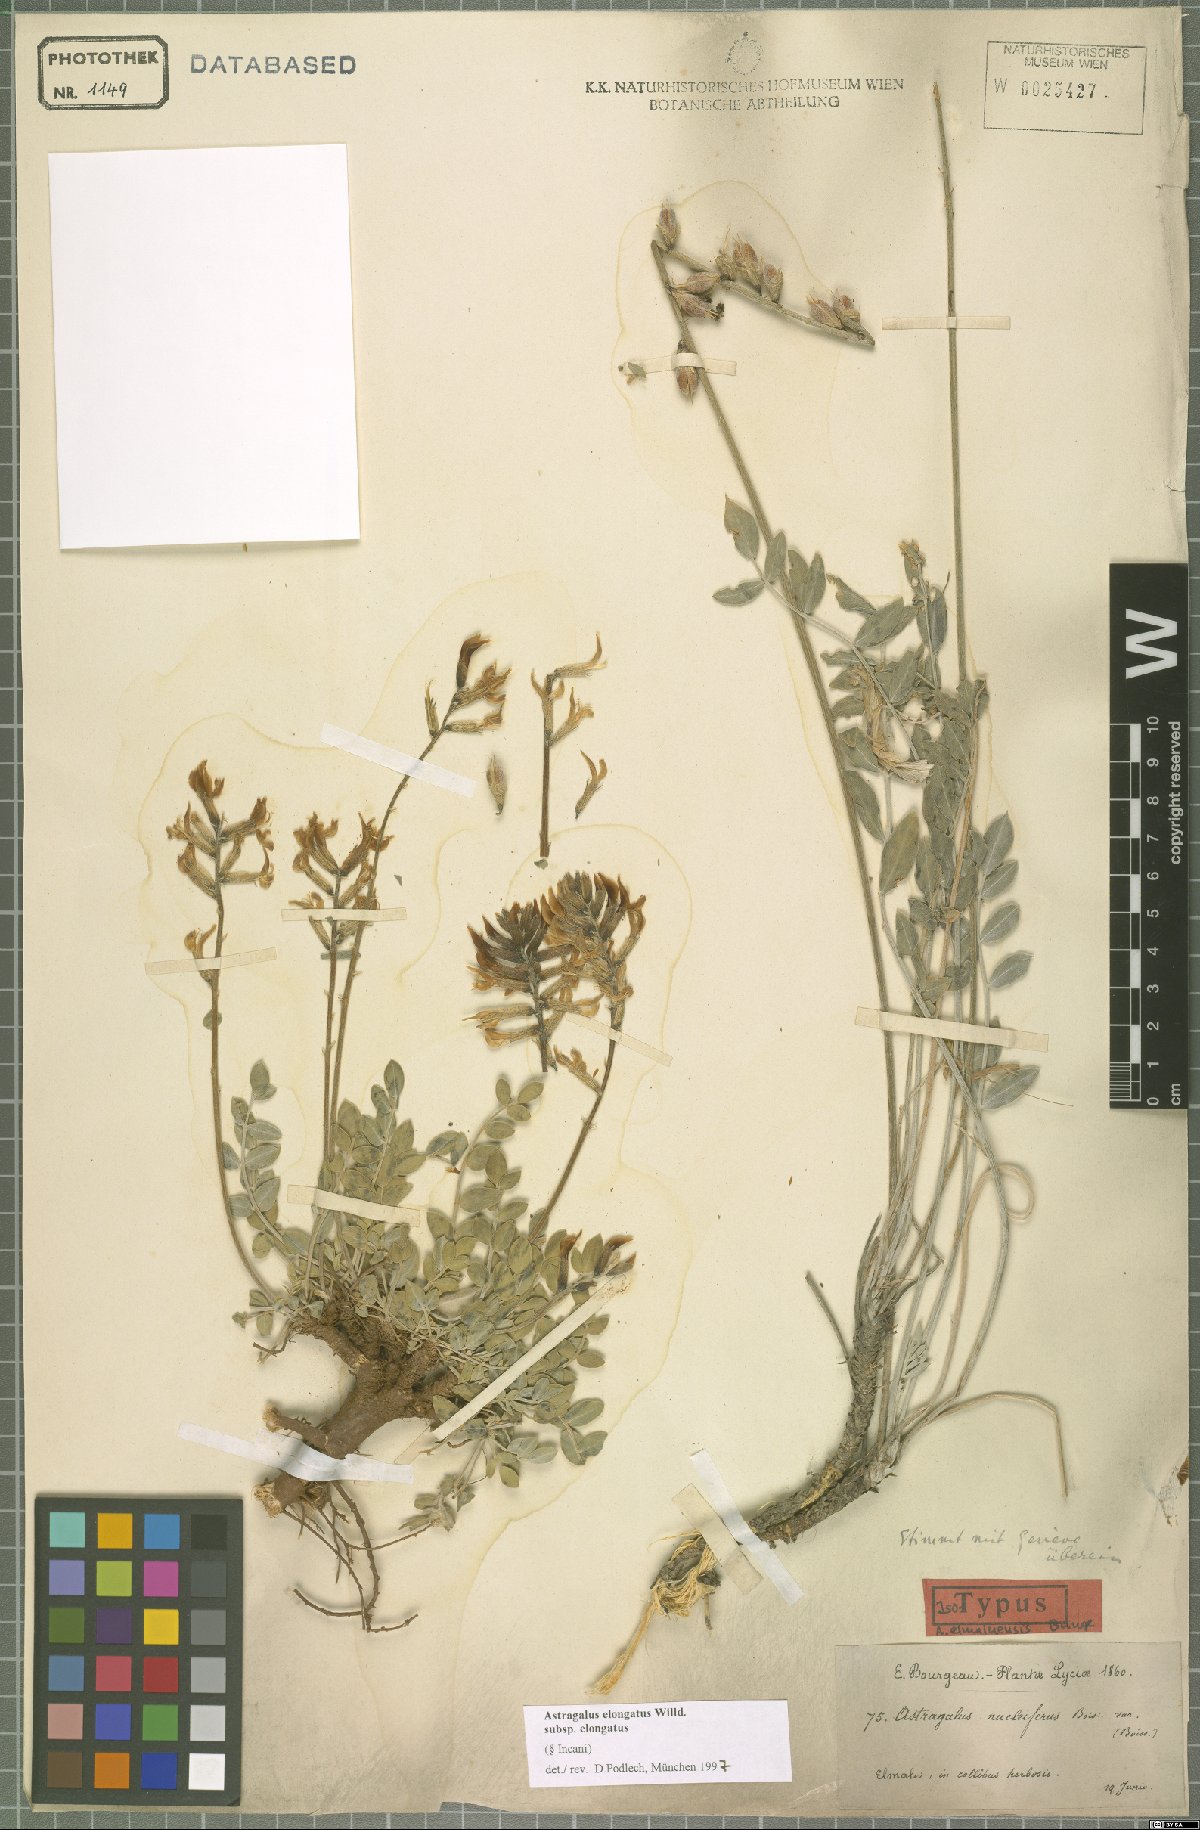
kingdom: Plantae
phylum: Tracheophyta
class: Magnoliopsida
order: Fabales
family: Fabaceae
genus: Astragalus
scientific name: Astragalus elongatus
